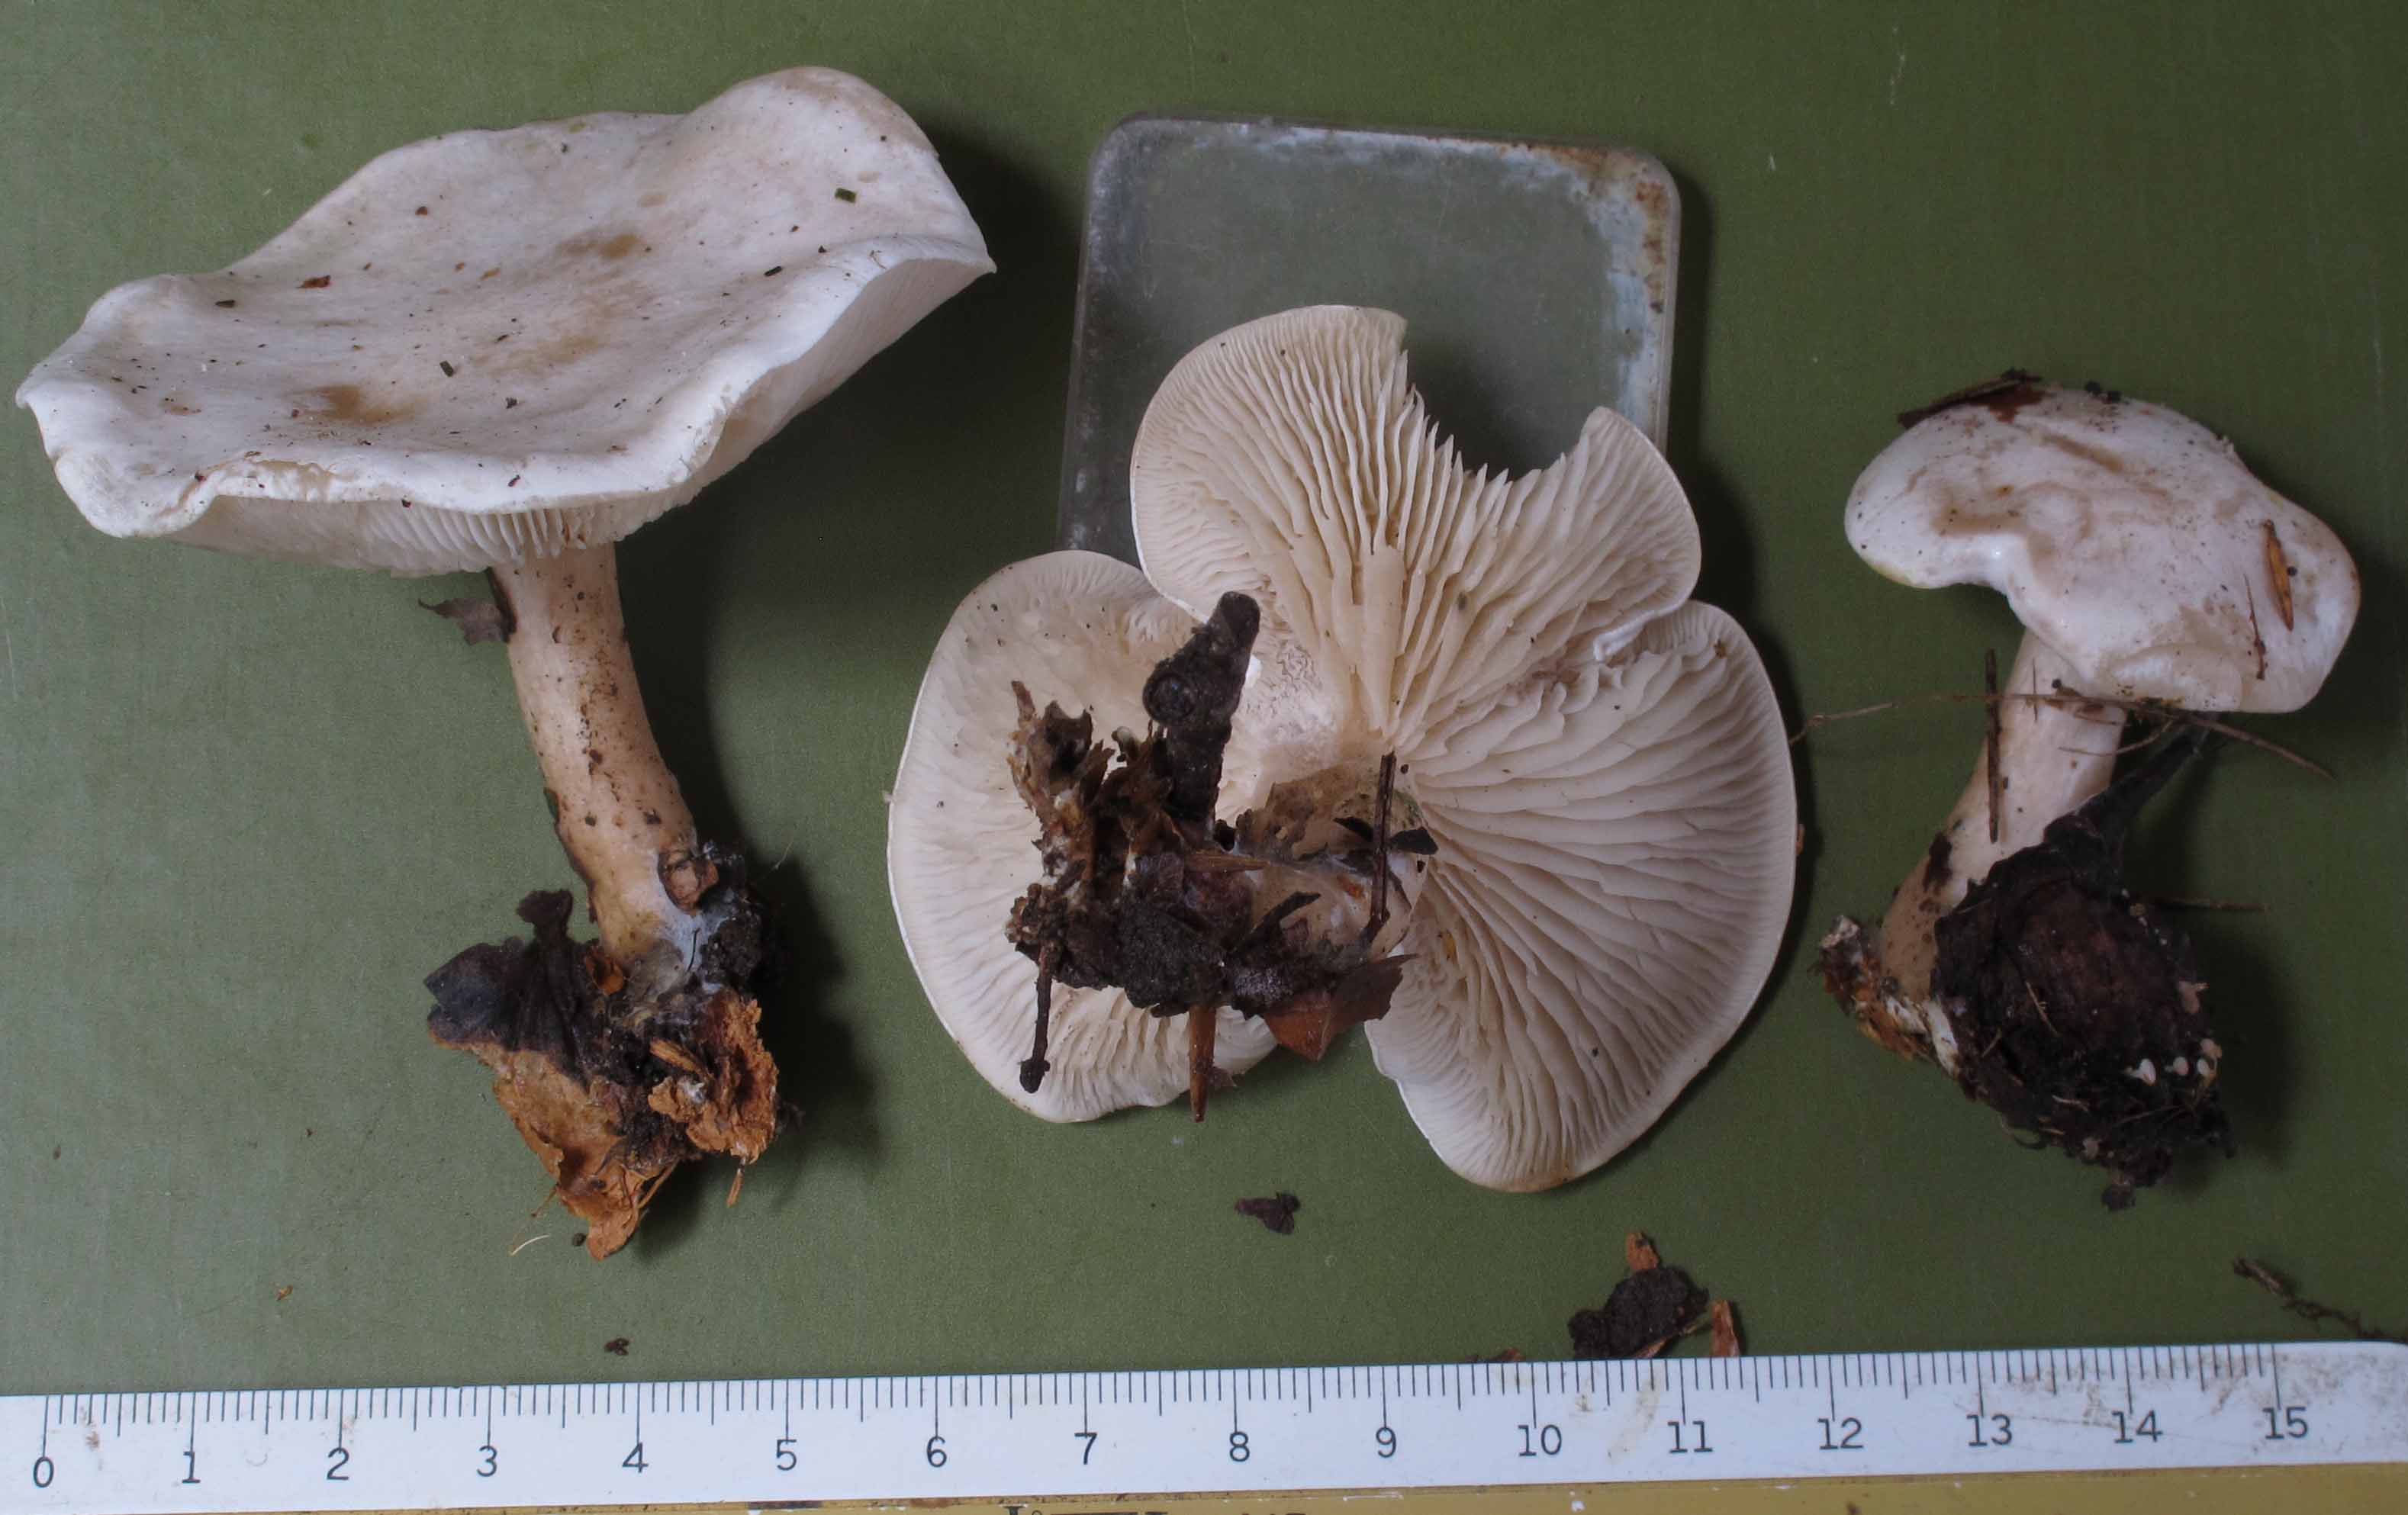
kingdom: Fungi
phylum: Basidiomycota
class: Agaricomycetes
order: Agaricales
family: Tricholomataceae
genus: Clitocybe
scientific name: Clitocybe phyllophila
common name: løv-tragthat
